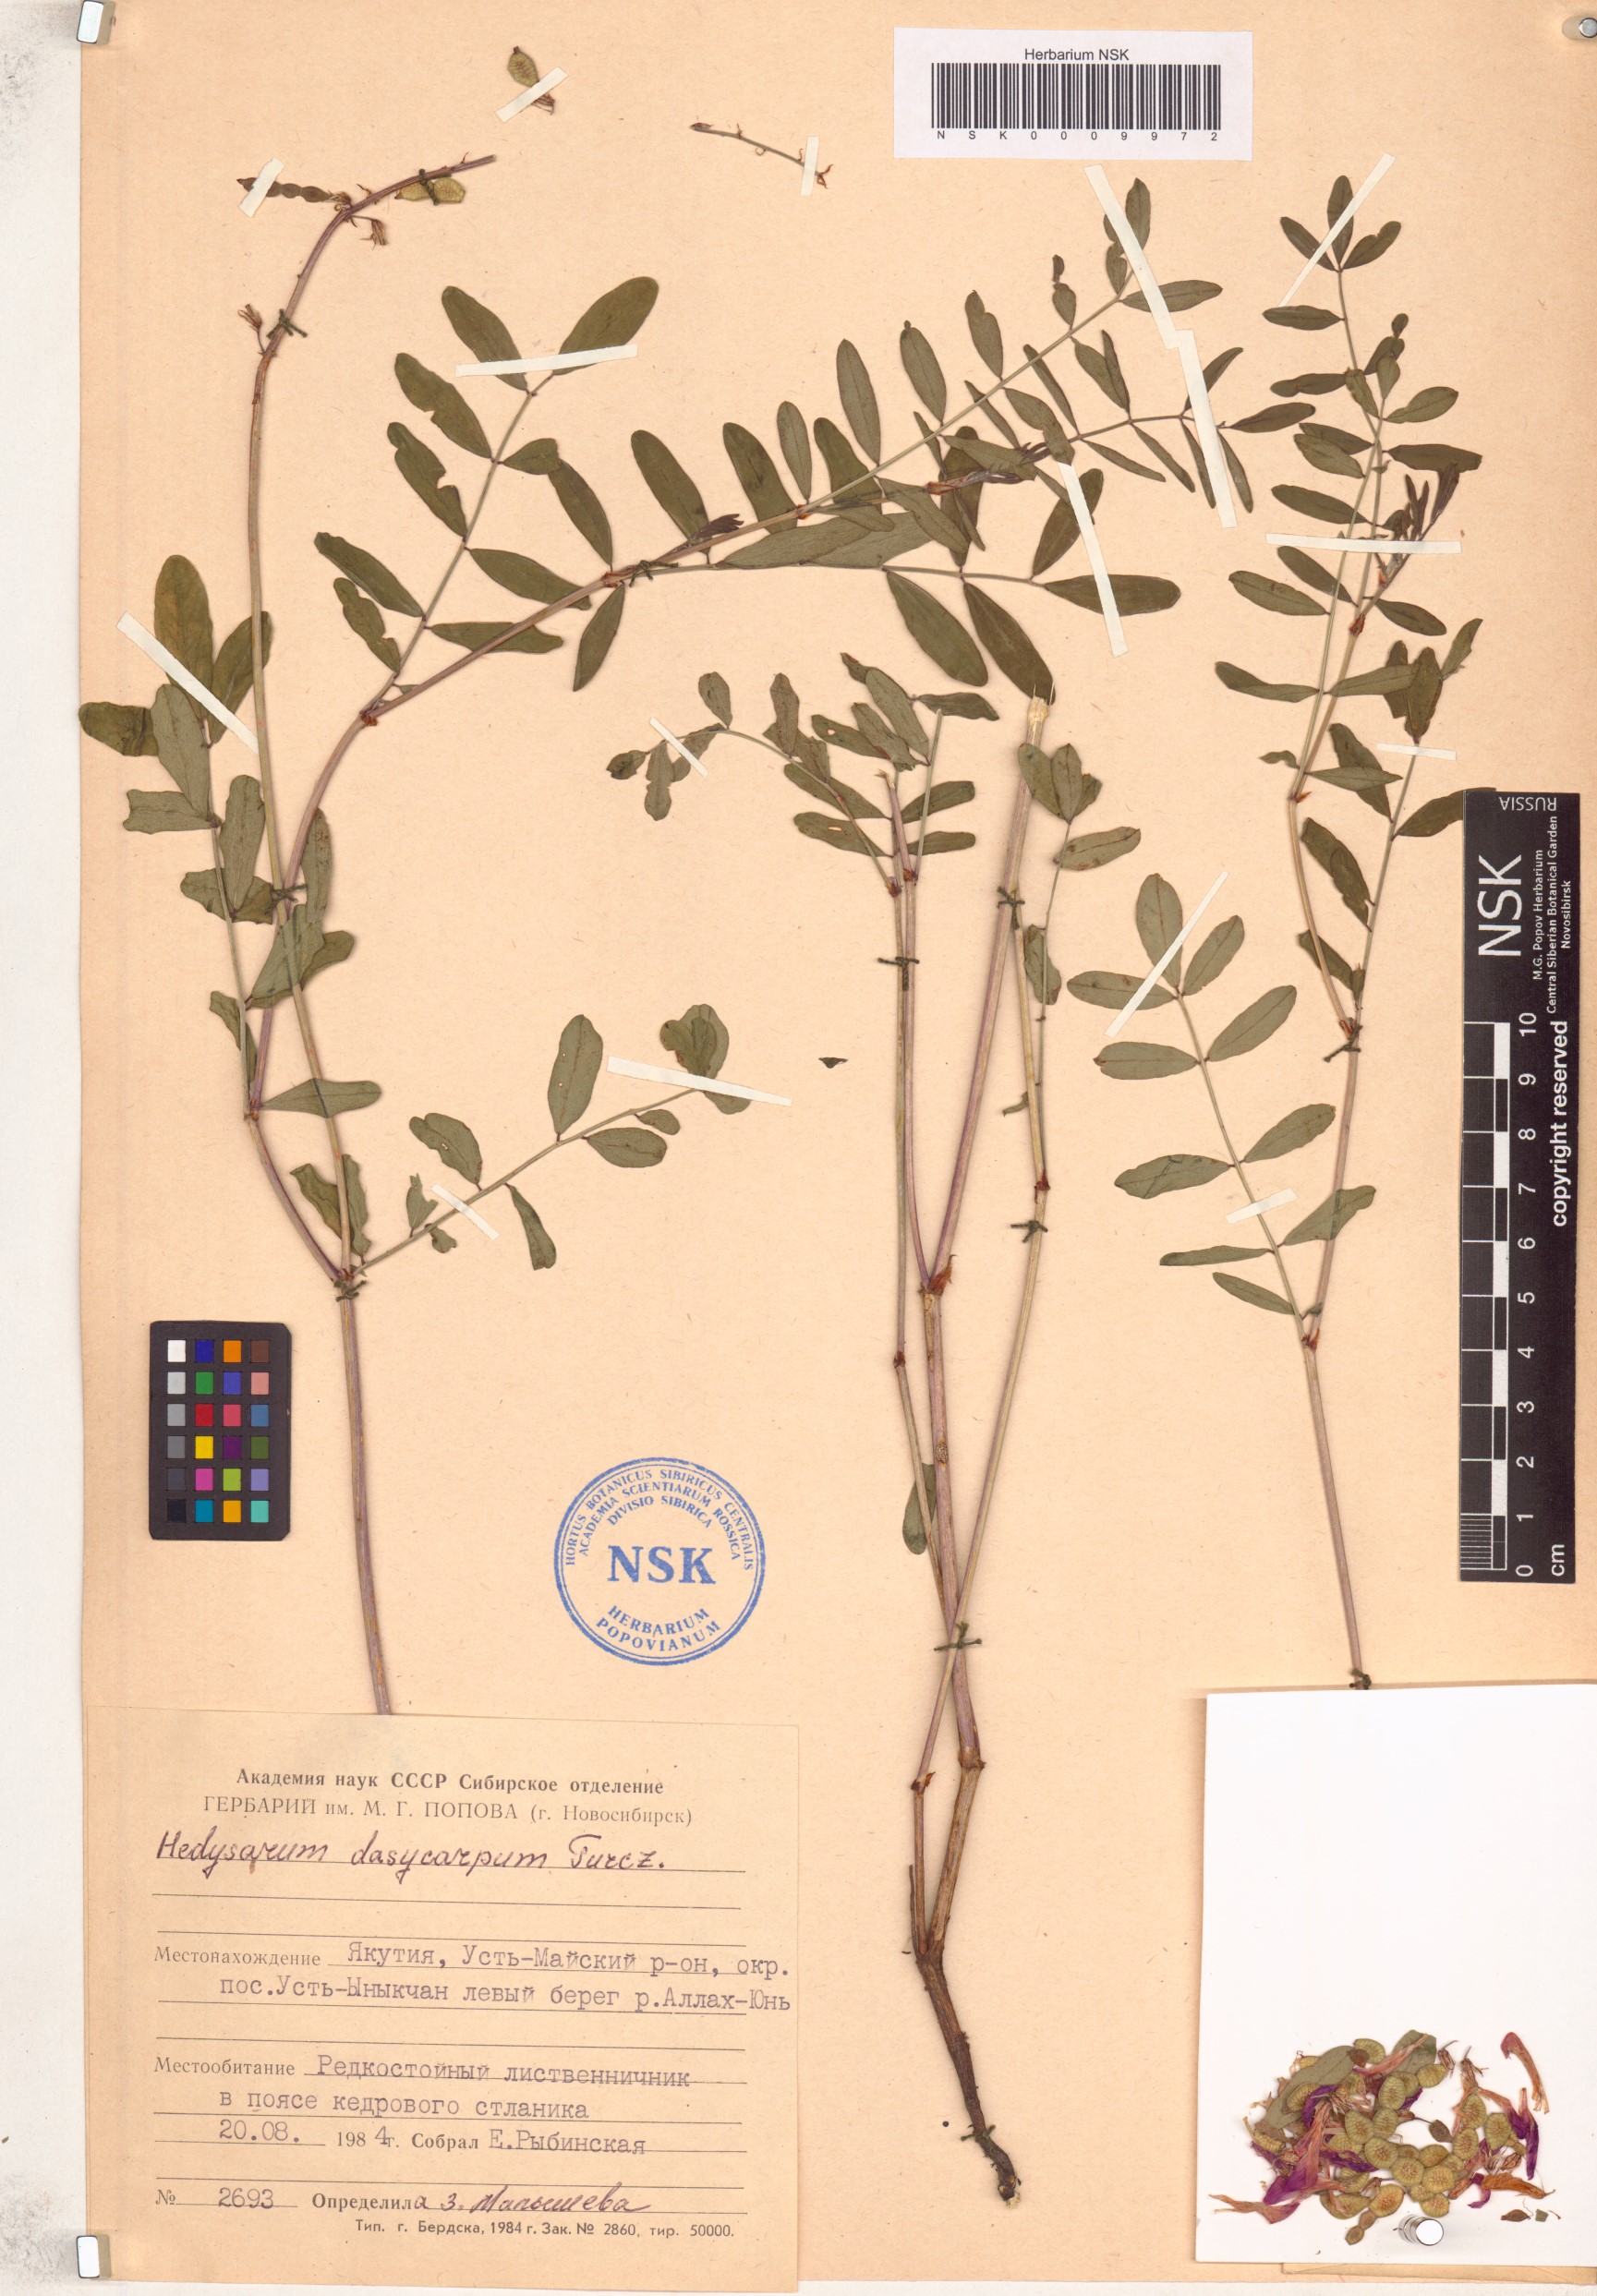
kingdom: Plantae
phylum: Tracheophyta
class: Magnoliopsida
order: Fabales
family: Fabaceae
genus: Hedysarum
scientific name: Hedysarum dasycarpum
